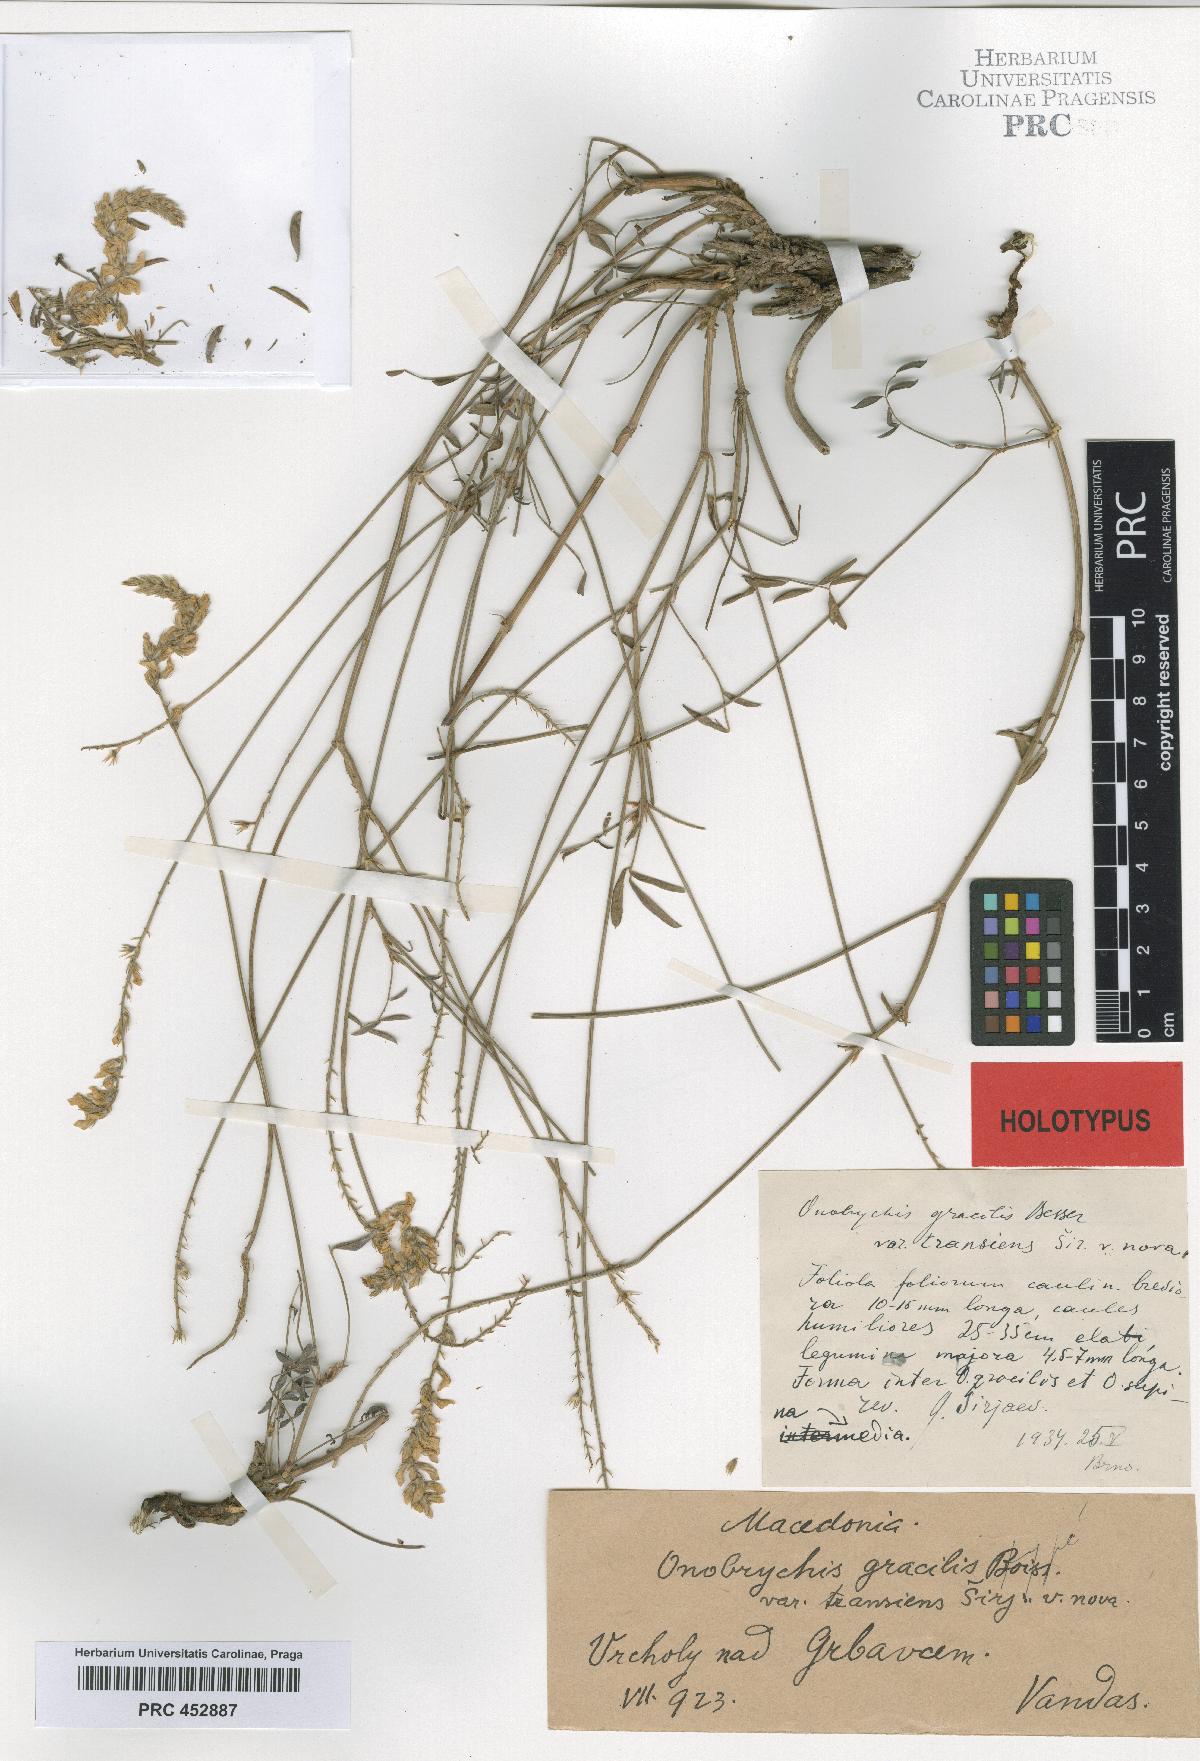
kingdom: Plantae
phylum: Tracheophyta
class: Magnoliopsida
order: Fabales
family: Fabaceae
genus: Onobrychis
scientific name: Onobrychis gracilis
